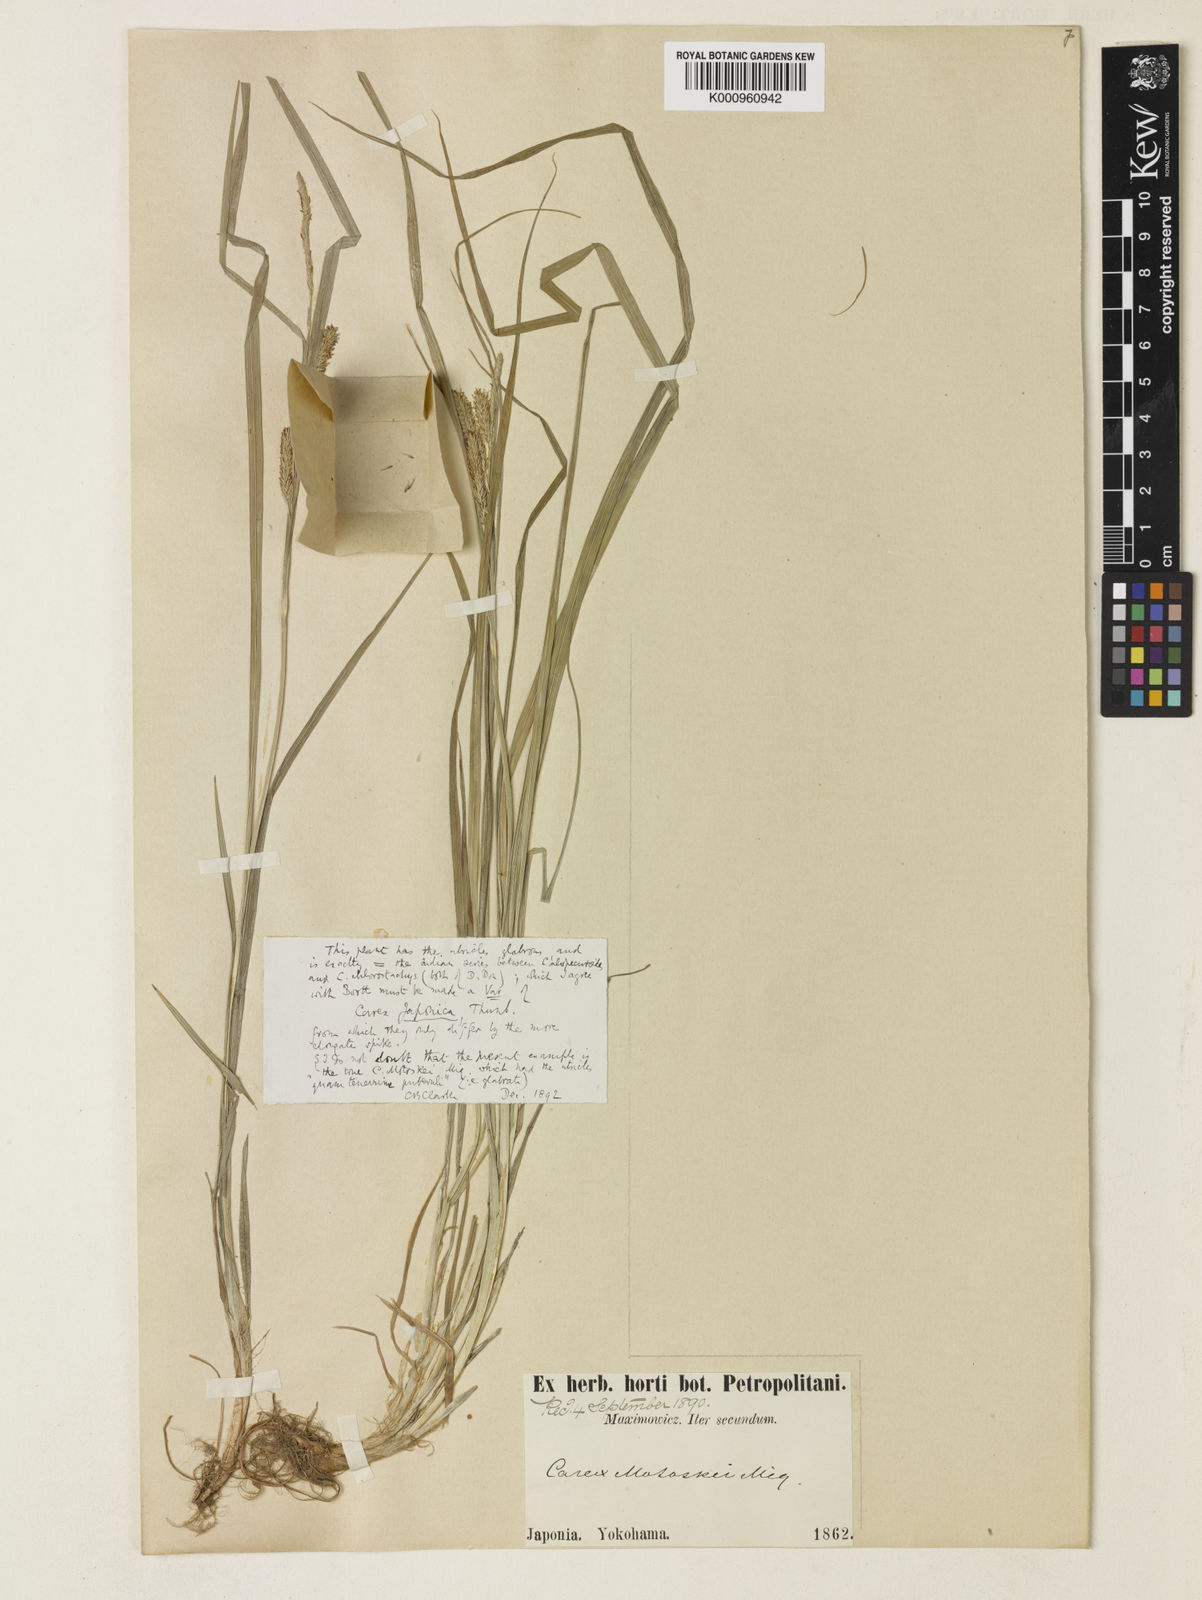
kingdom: Plantae
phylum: Tracheophyta
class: Liliopsida
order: Poales
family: Cyperaceae
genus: Carex
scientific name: Carex japonica
